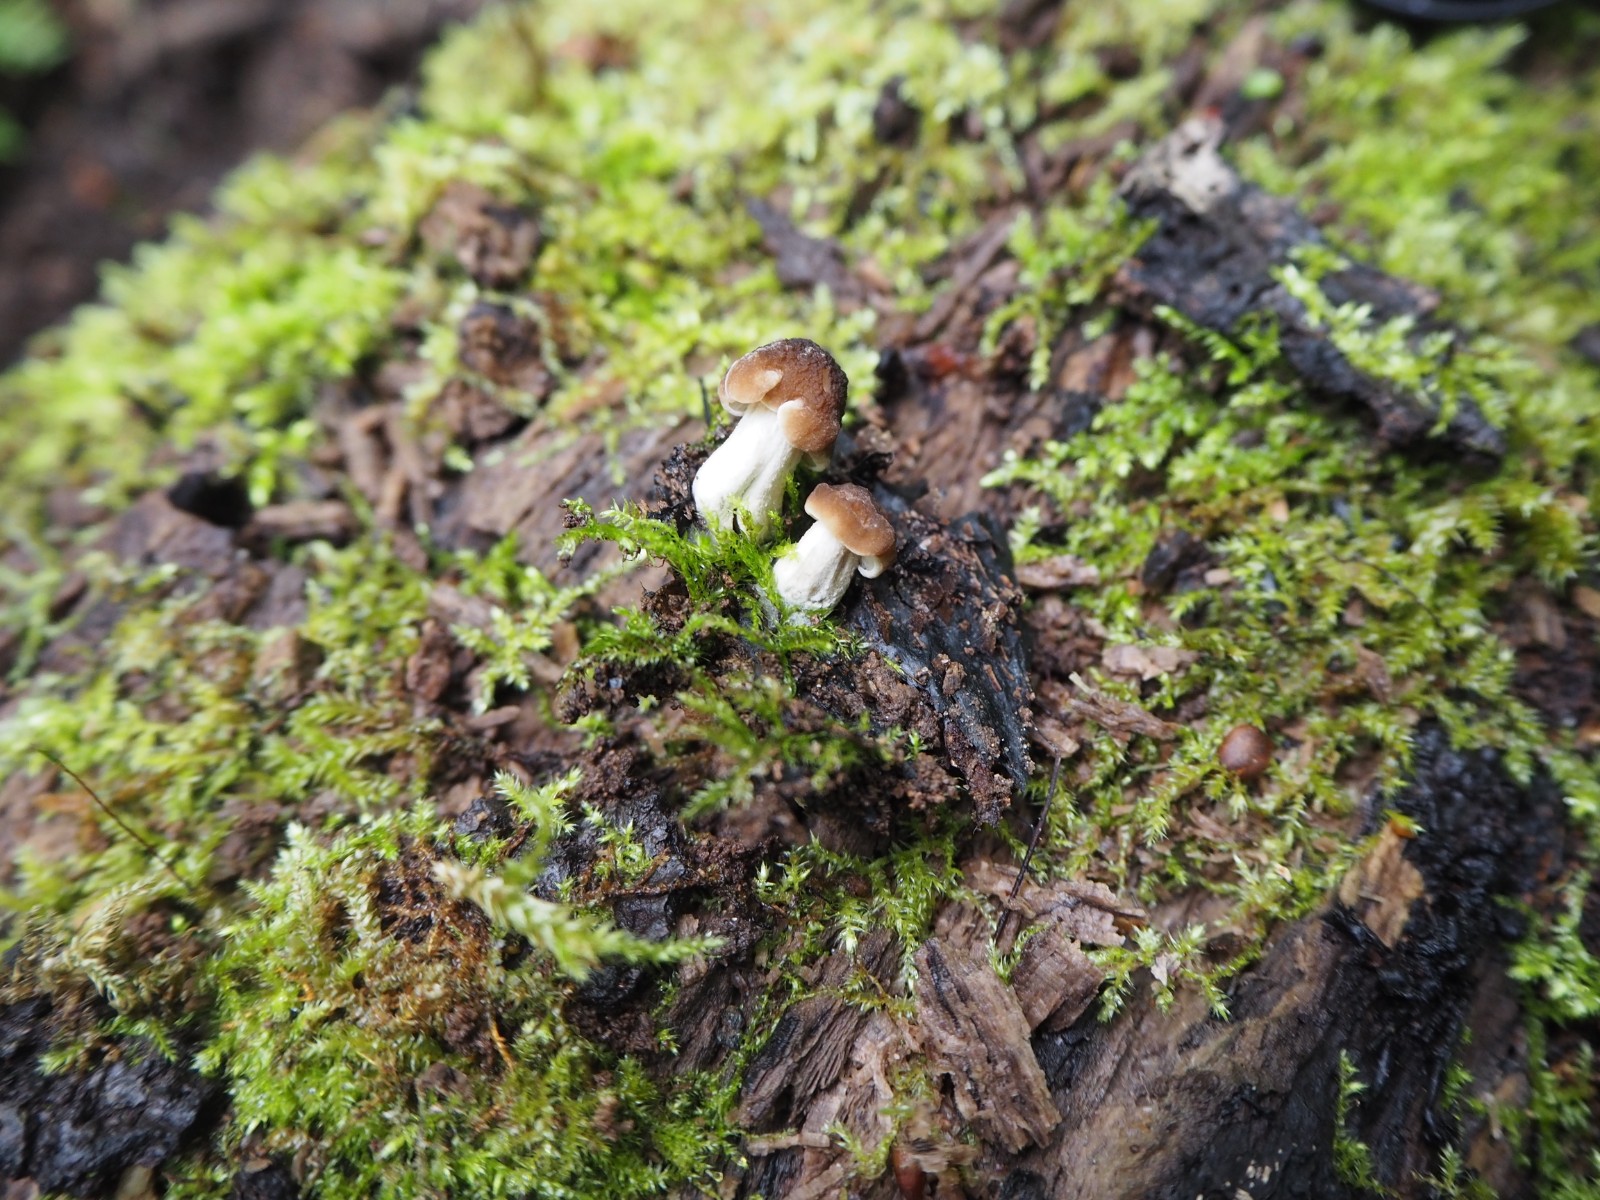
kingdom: Fungi
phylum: Basidiomycota
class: Agaricomycetes
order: Agaricales
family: Pluteaceae
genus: Pluteus
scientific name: Pluteus phlebophorus
